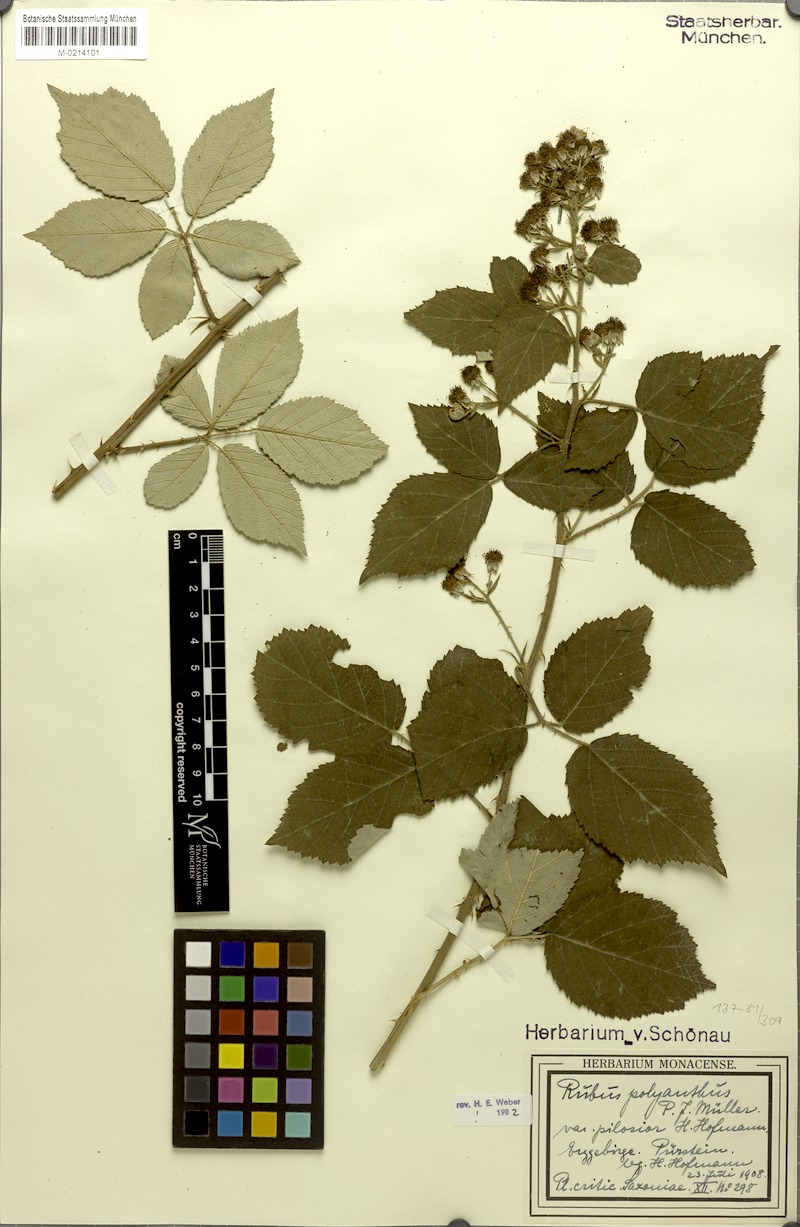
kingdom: Plantae
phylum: Tracheophyta
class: Magnoliopsida
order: Rosales
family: Rosaceae
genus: Rubus
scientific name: Rubus polyanthus
